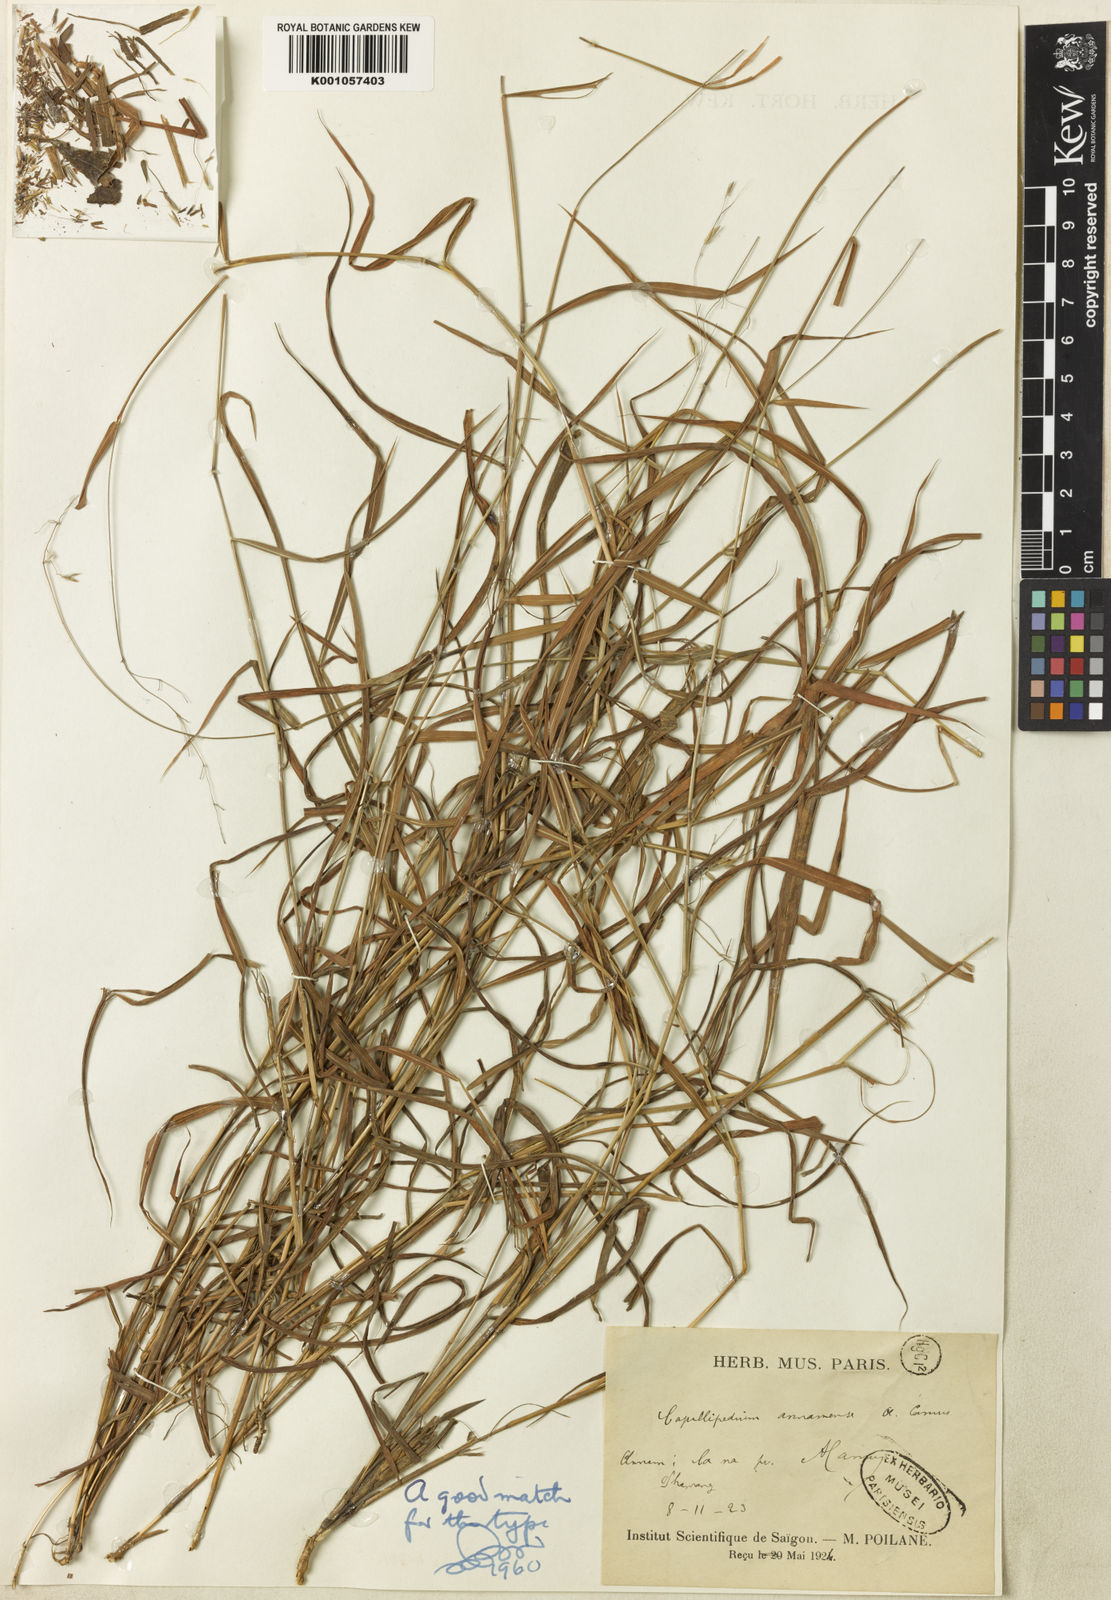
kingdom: Plantae
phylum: Tracheophyta
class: Liliopsida
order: Poales
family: Poaceae
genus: Capillipedium
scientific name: Capillipedium annamense
